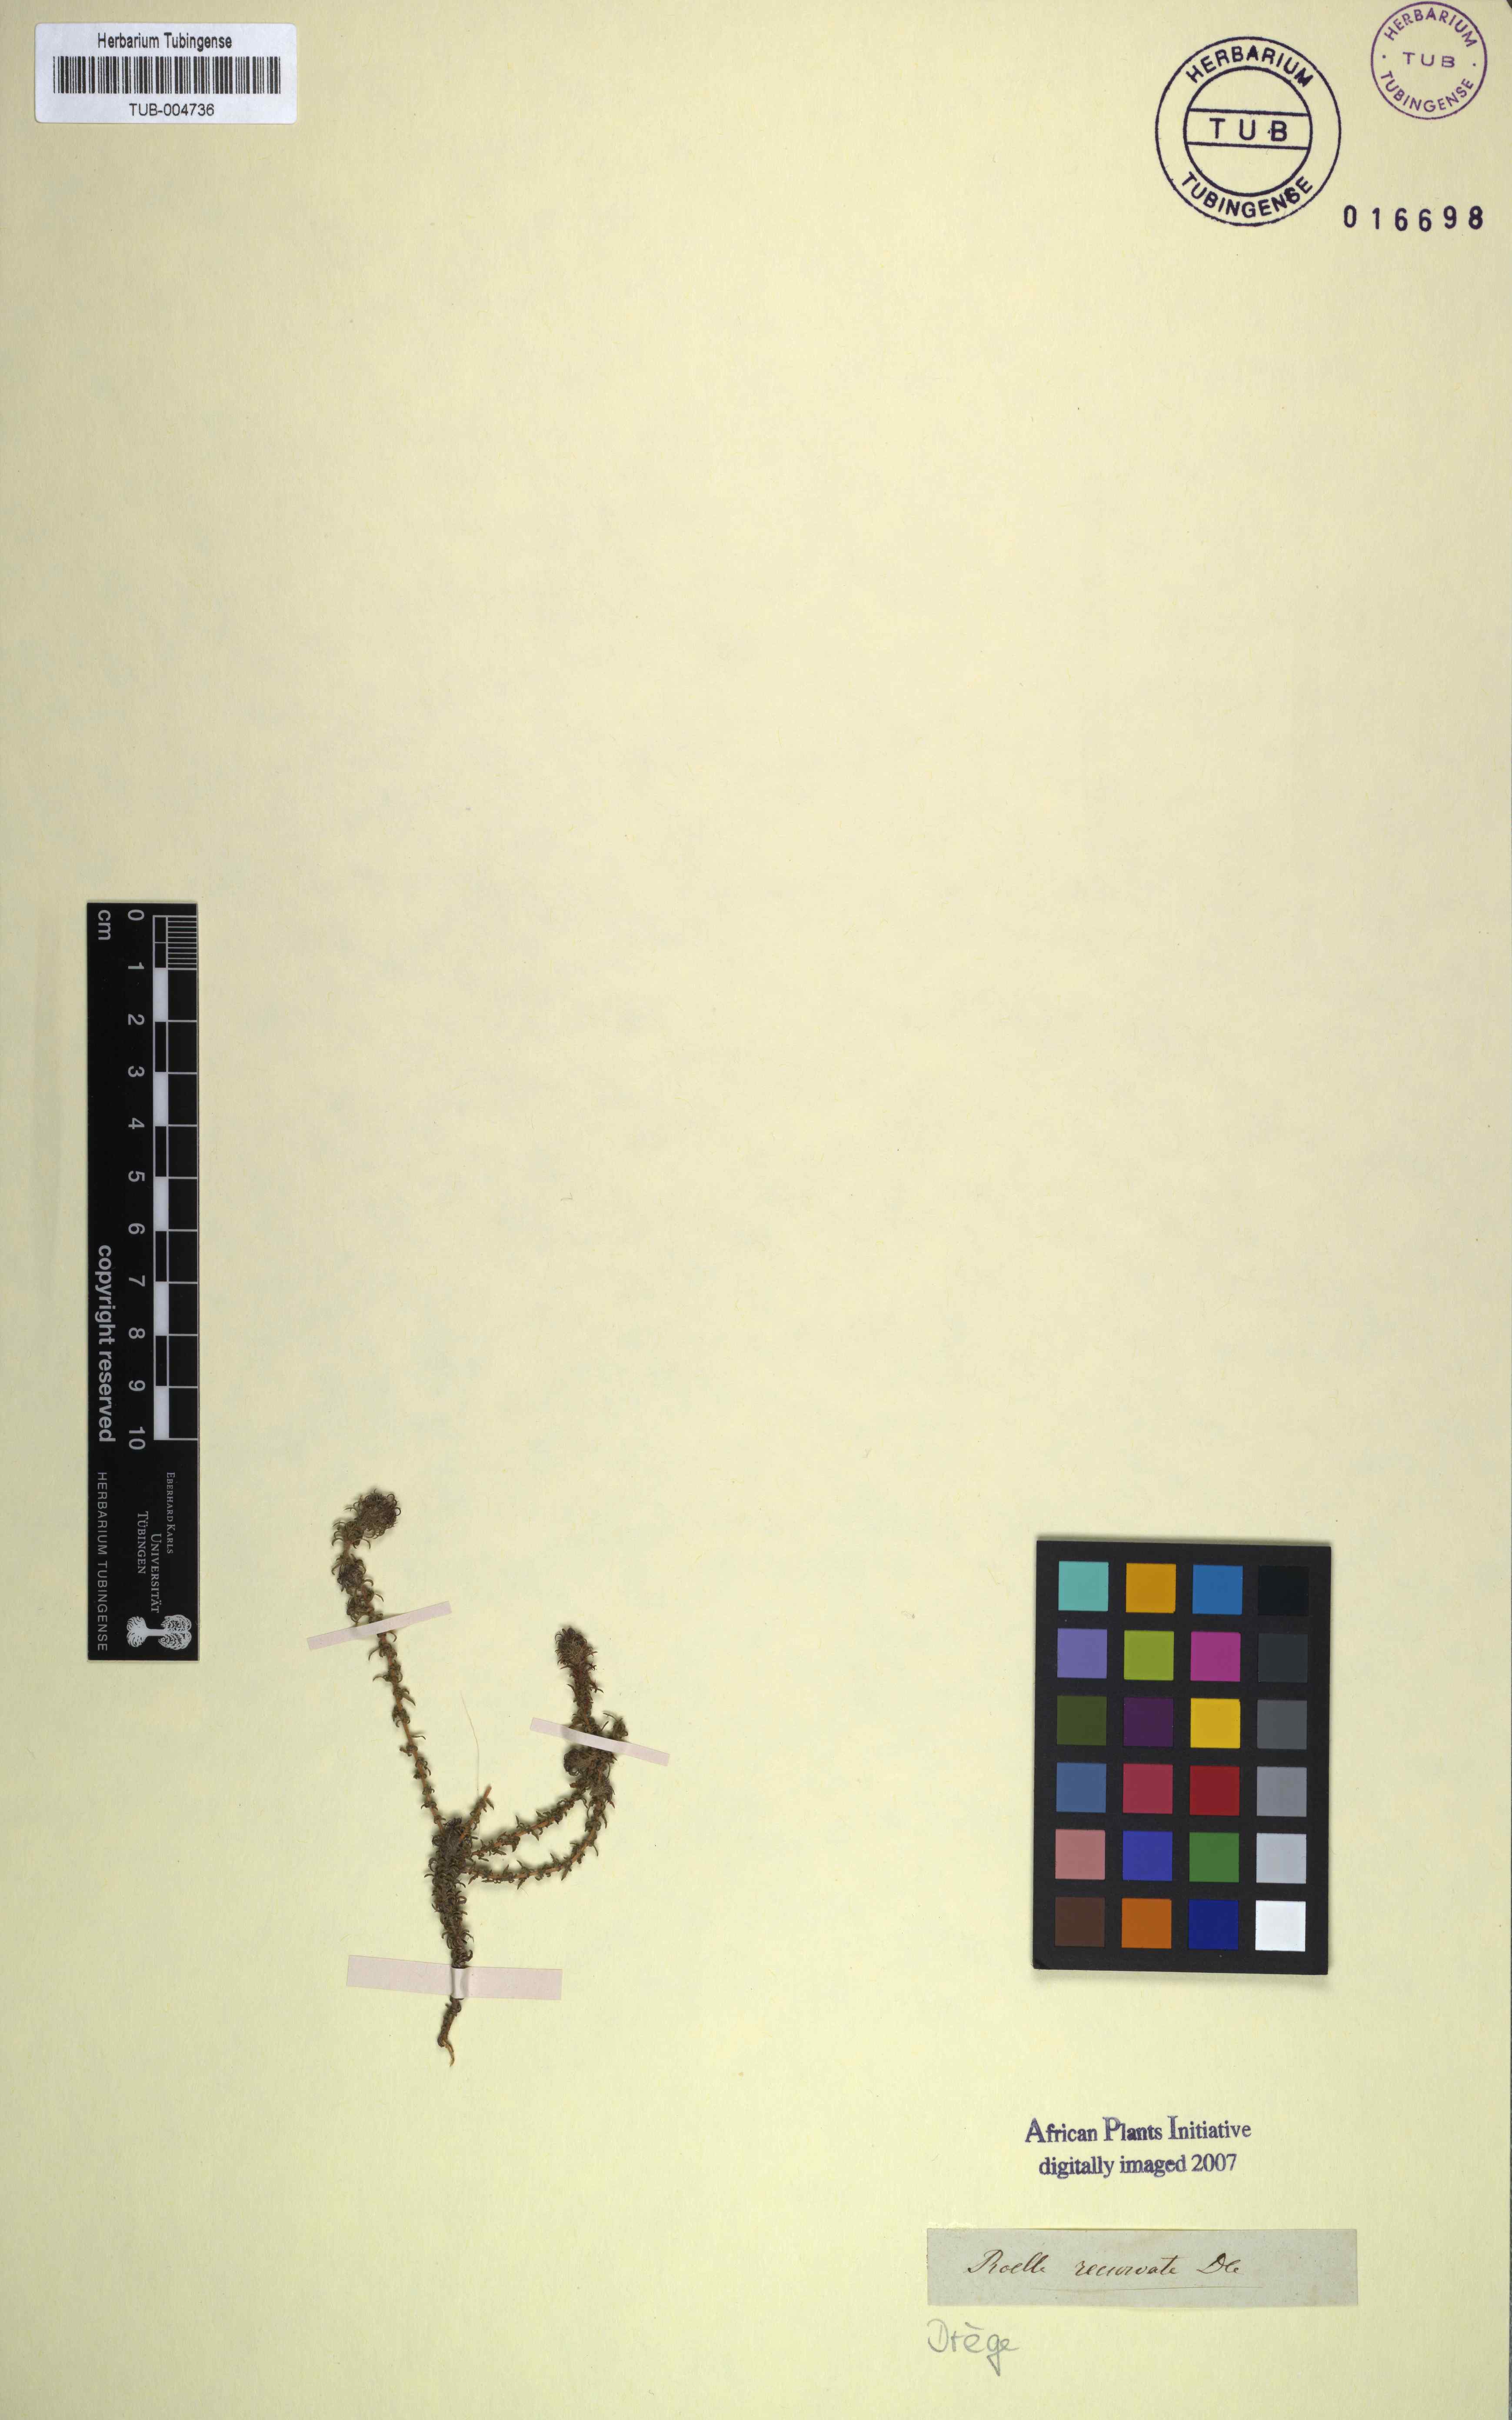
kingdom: Plantae
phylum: Tracheophyta
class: Magnoliopsida
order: Asterales
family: Campanulaceae
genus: Roella
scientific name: Roella recurvata
